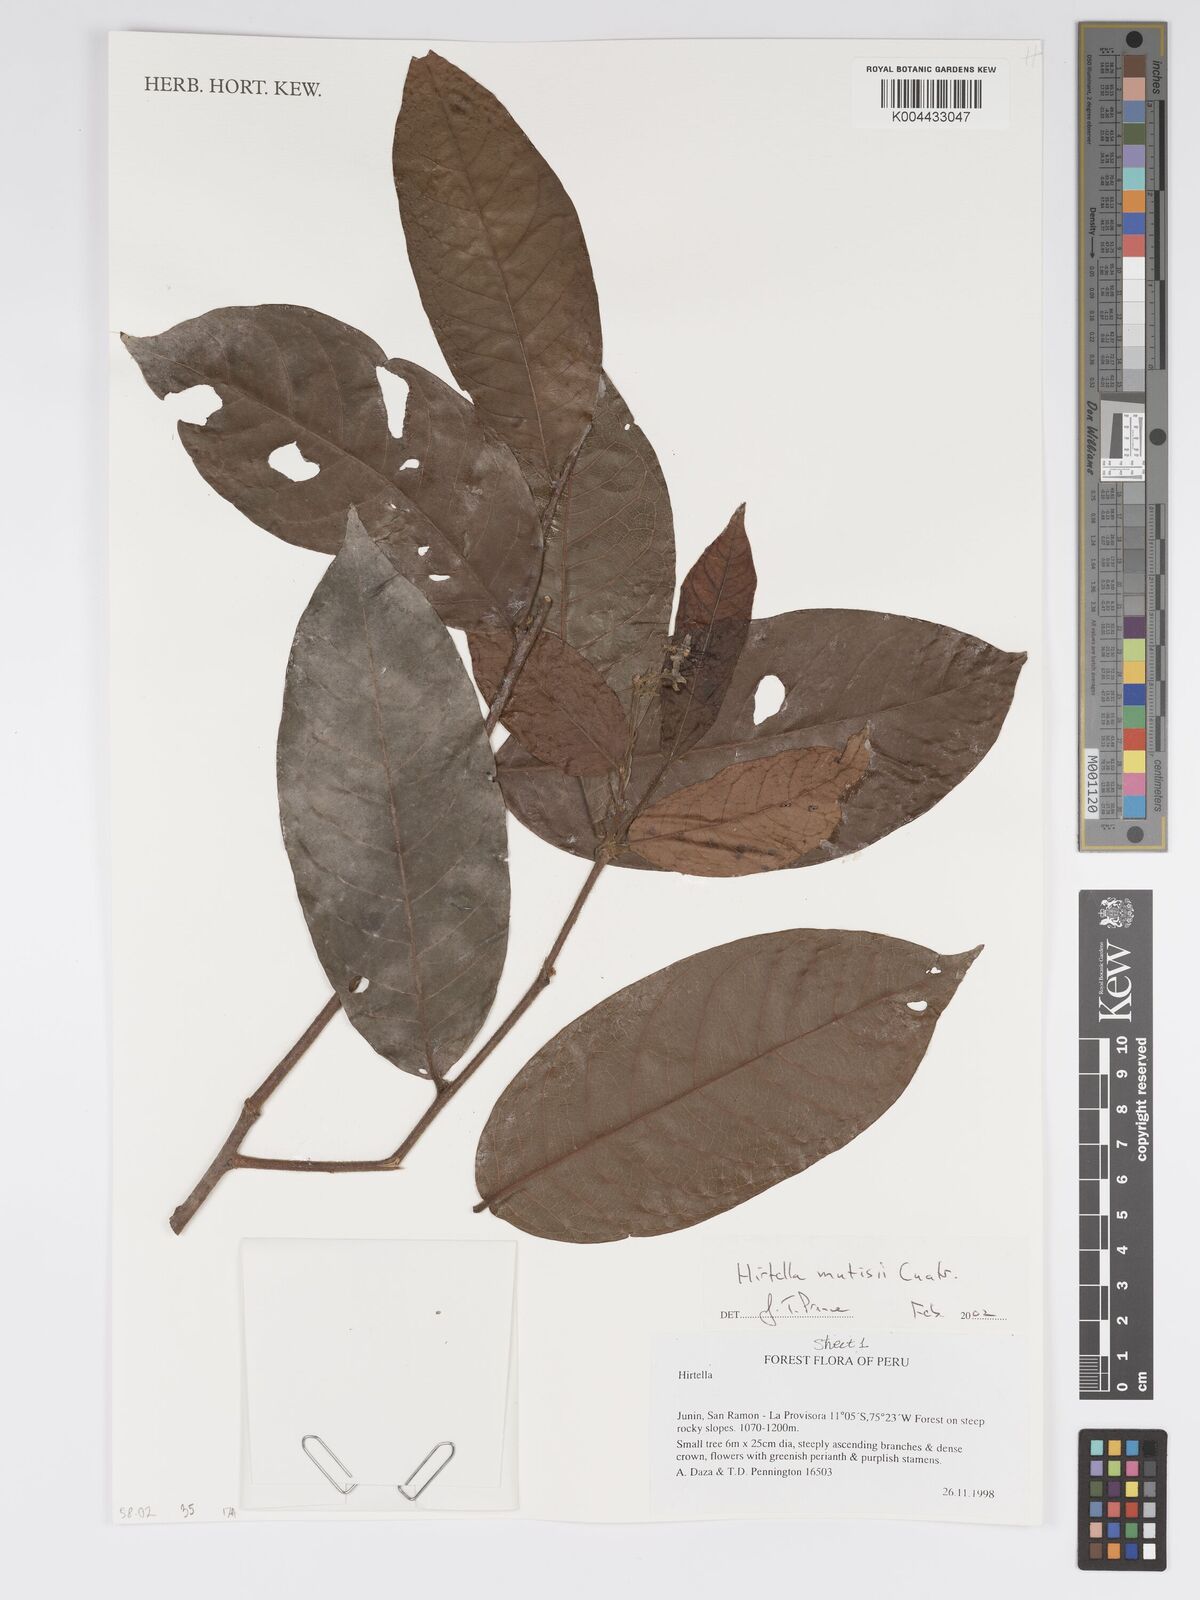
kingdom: Plantae
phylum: Tracheophyta
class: Magnoliopsida
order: Malpighiales
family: Chrysobalanaceae
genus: Hirtella
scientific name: Hirtella mutisii
